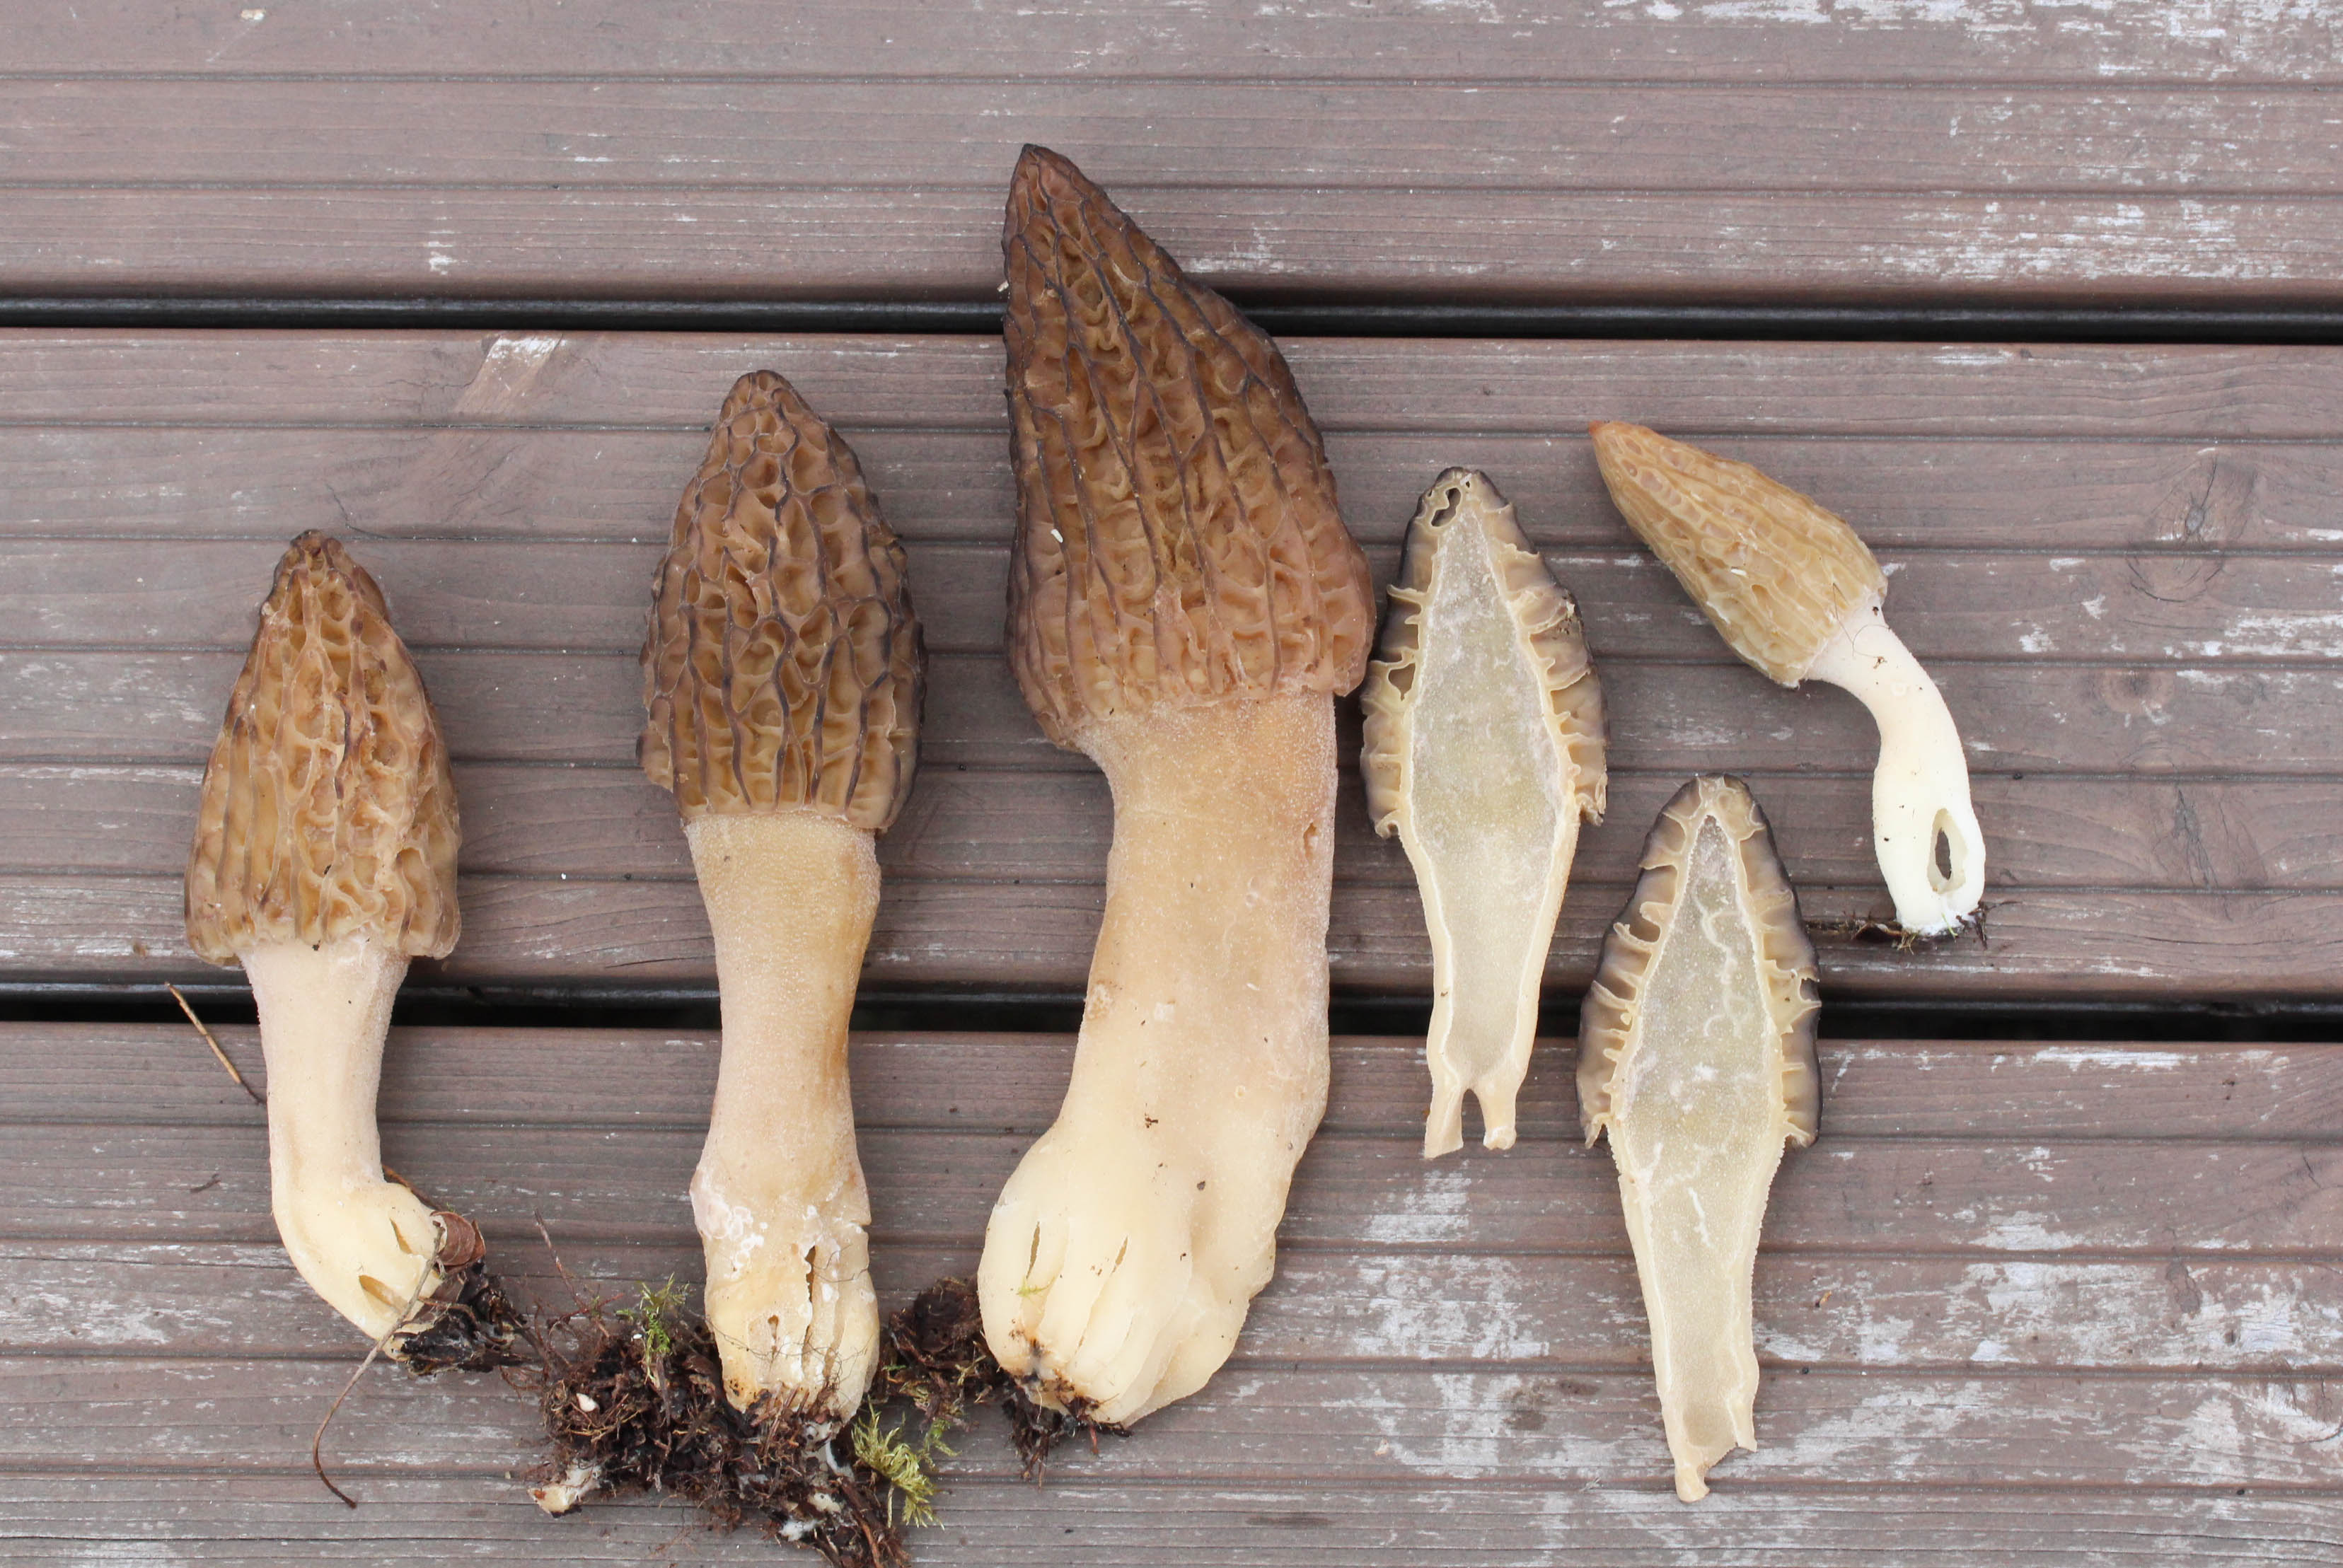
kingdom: Fungi
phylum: Ascomycota
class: Pezizomycetes
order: Pezizales
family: Morchellaceae
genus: Morchella
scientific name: Morchella eximioides
